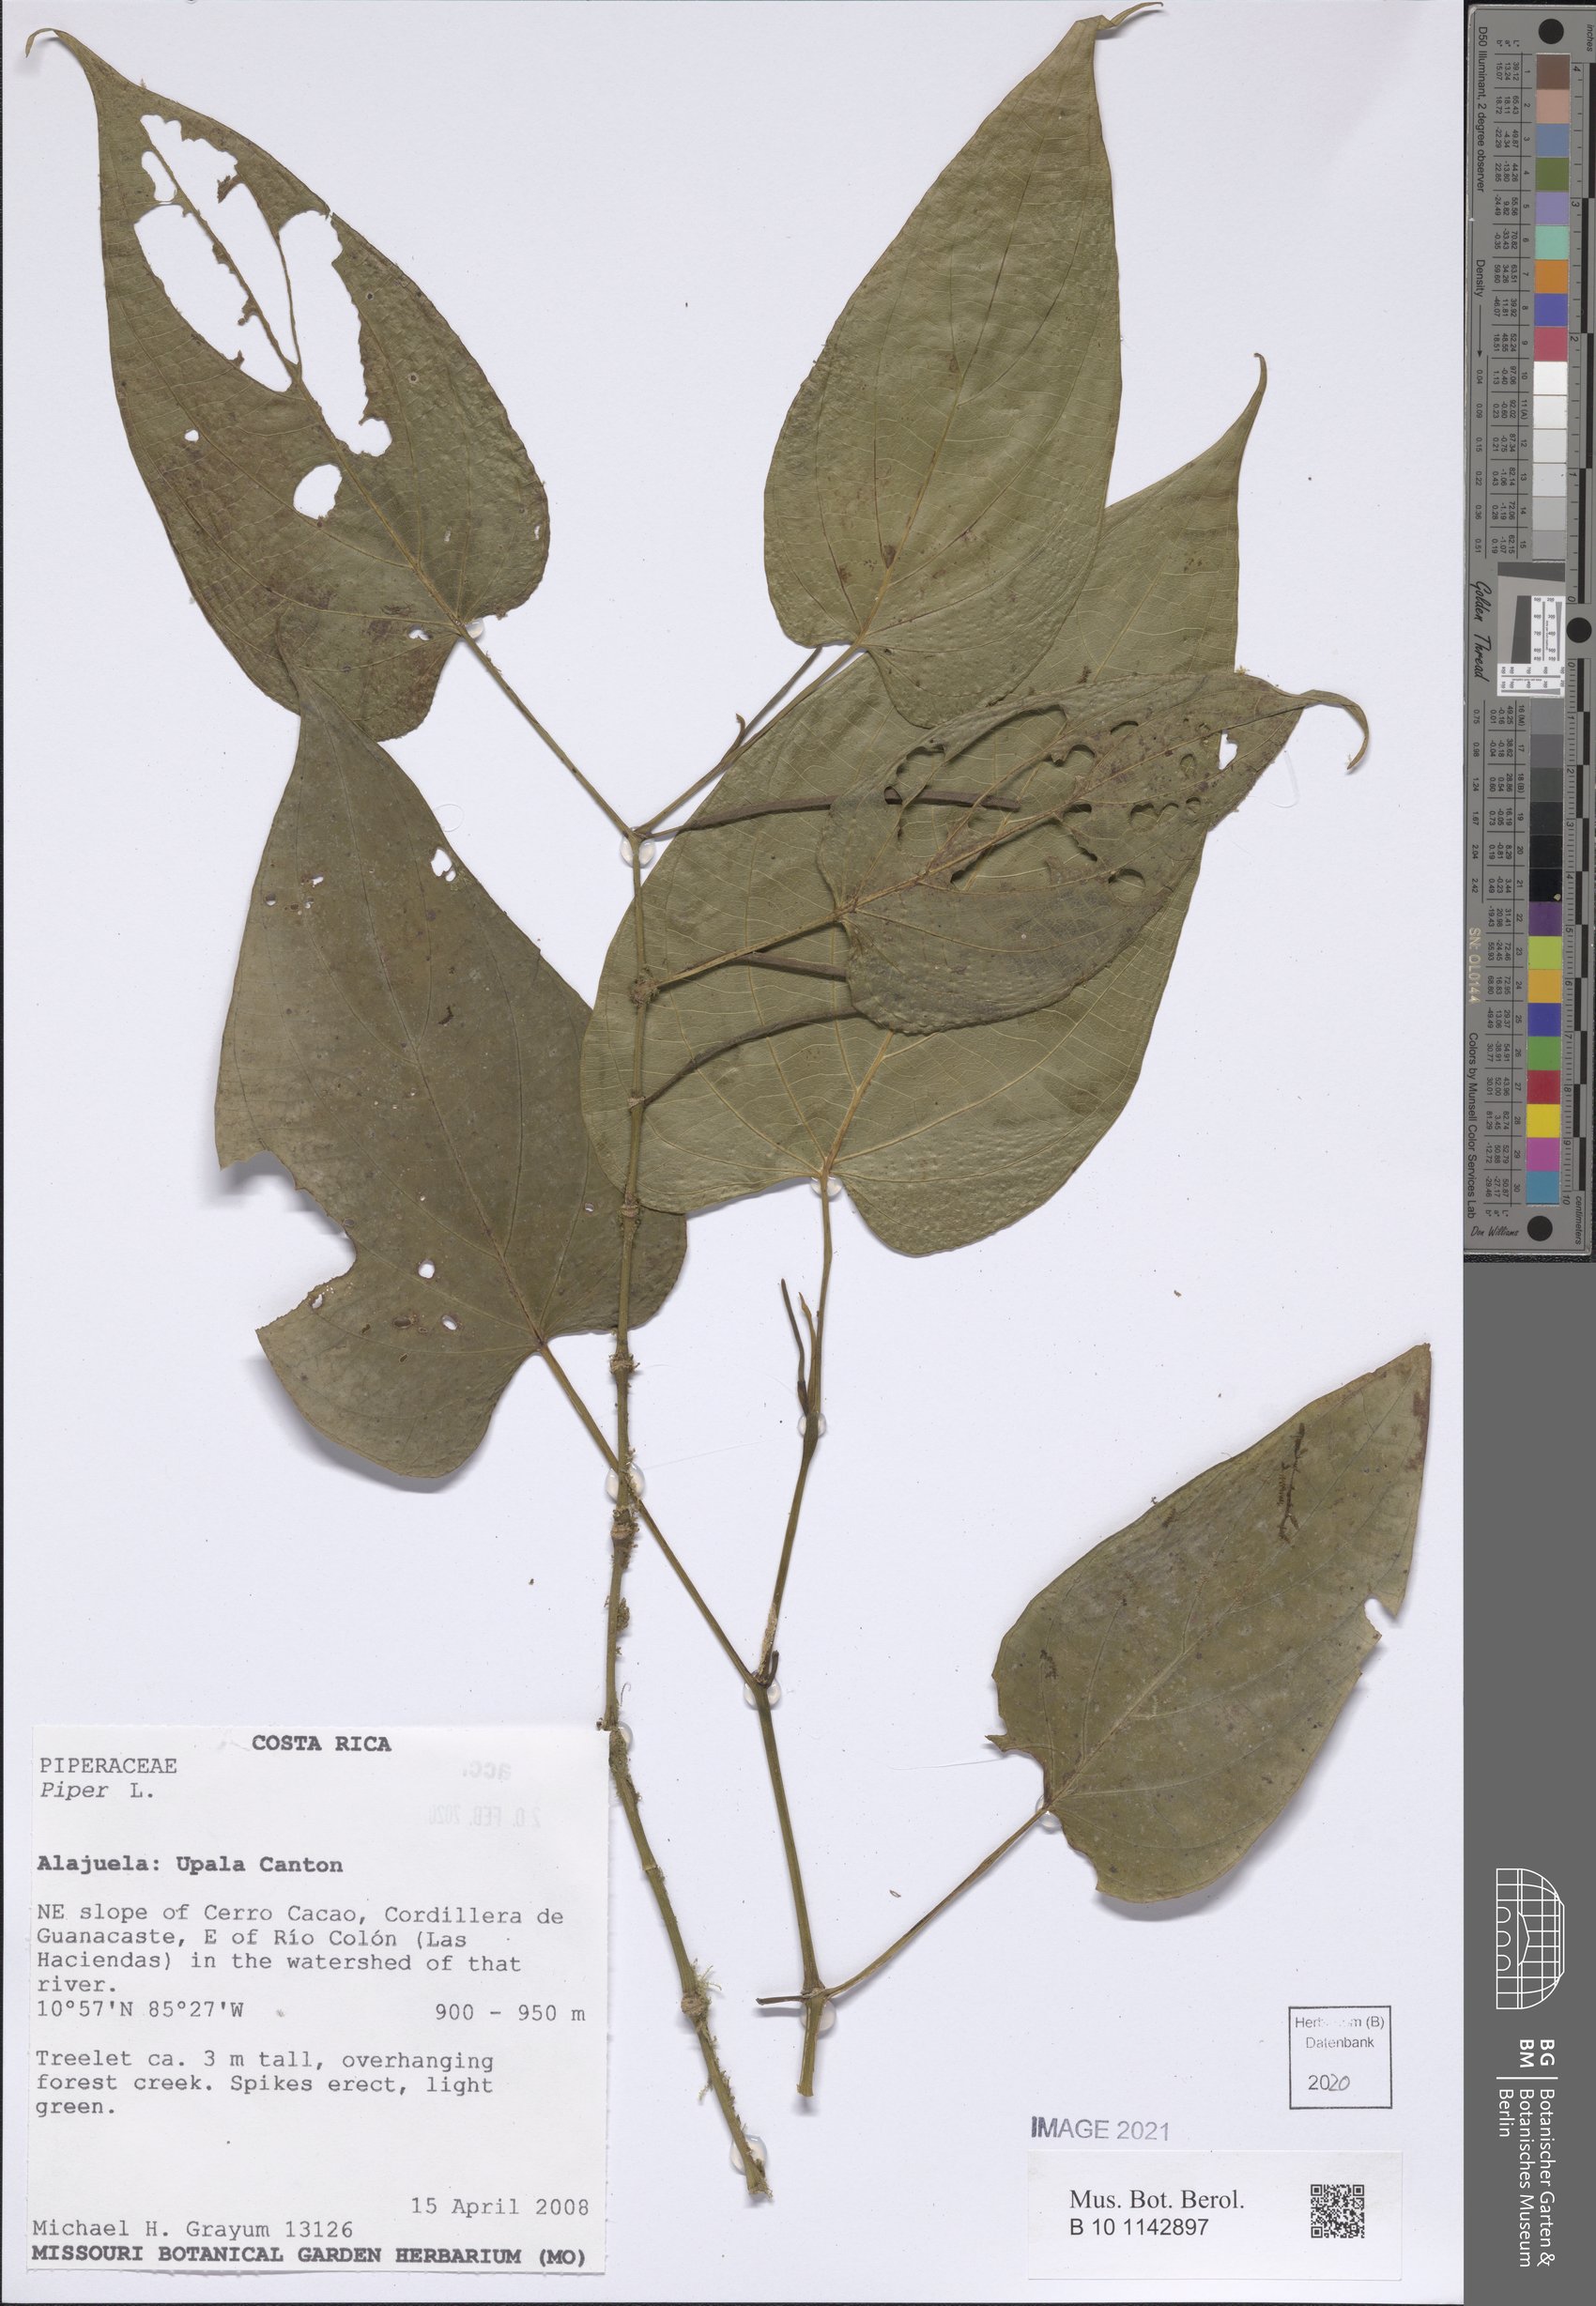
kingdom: Plantae
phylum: Tracheophyta
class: Magnoliopsida
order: Piperales
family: Piperaceae
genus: Piper
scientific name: Piper
